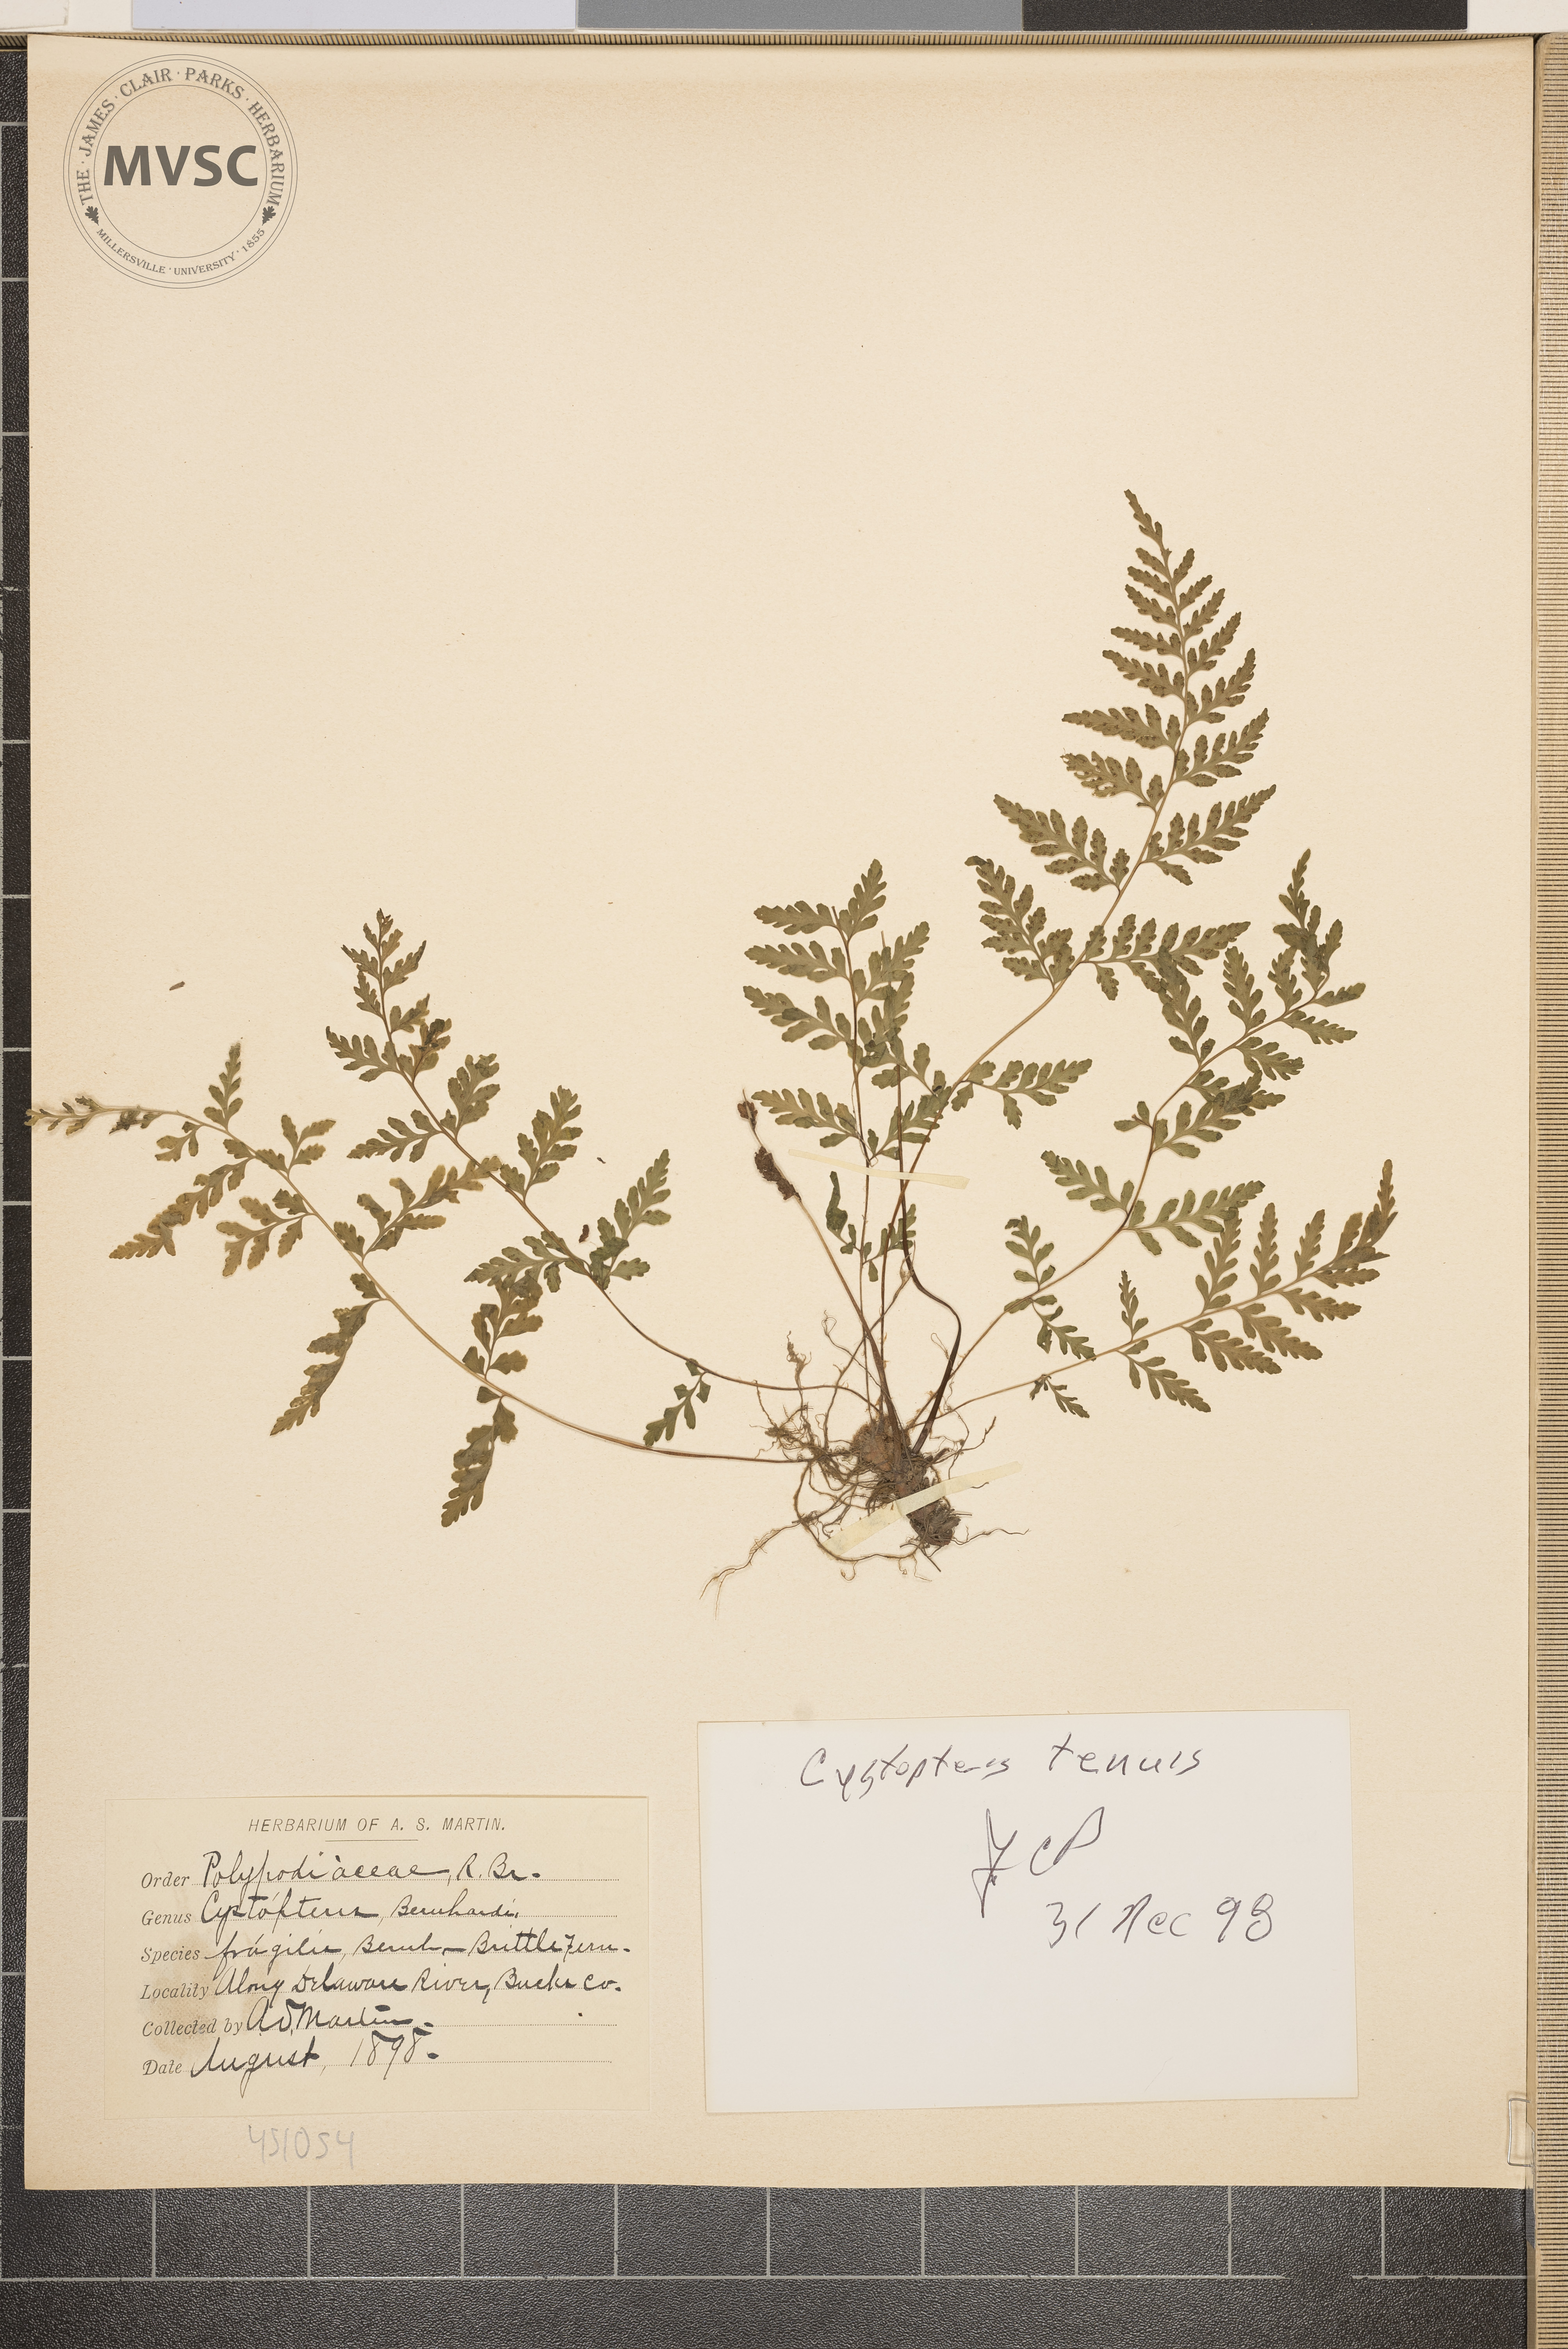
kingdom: Plantae
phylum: Tracheophyta
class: Polypodiopsida
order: Polypodiales
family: Cystopteridaceae
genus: Cystopteris
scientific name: Cystopteris tenuis
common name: Mackay's brittle fern
